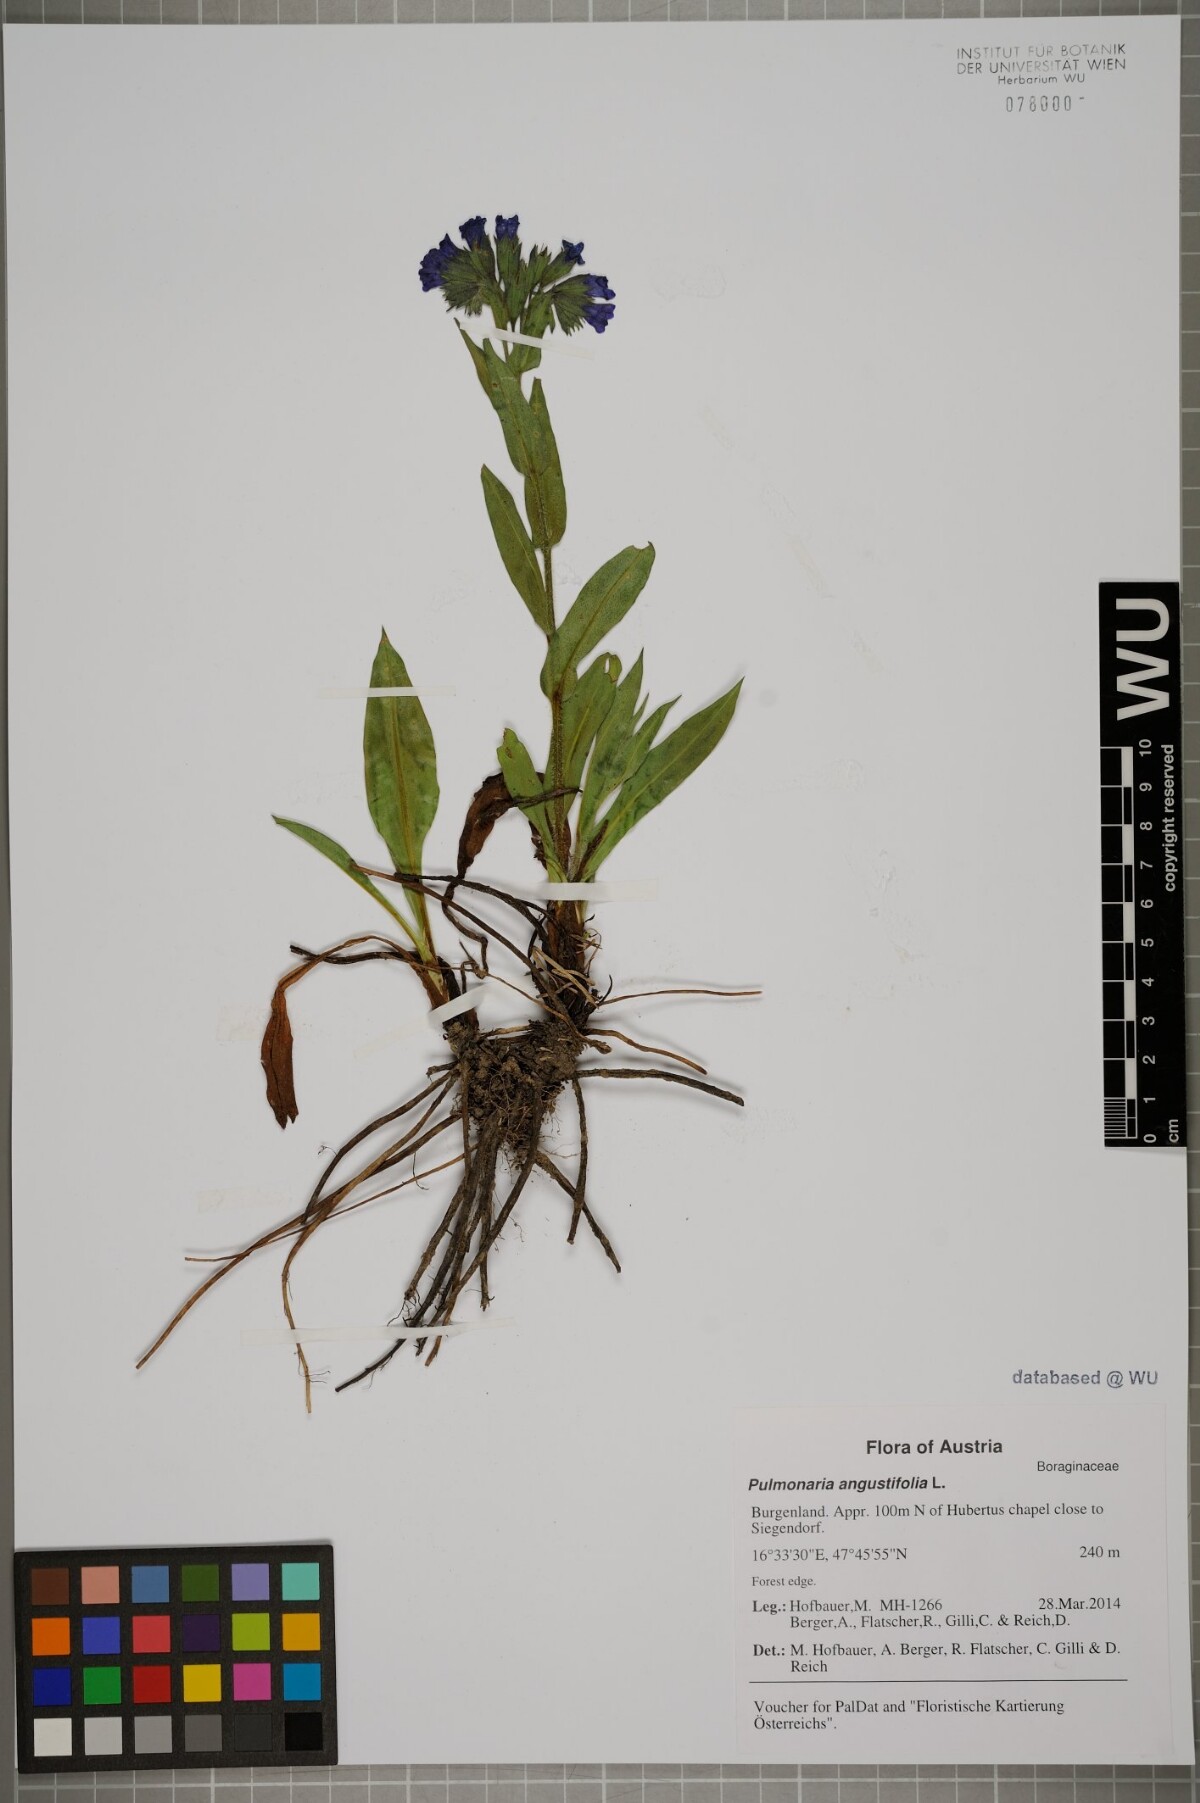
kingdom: Plantae
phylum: Tracheophyta
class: Magnoliopsida
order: Boraginales
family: Boraginaceae
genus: Pulmonaria
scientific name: Pulmonaria angustifolia
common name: Blue cowslip
